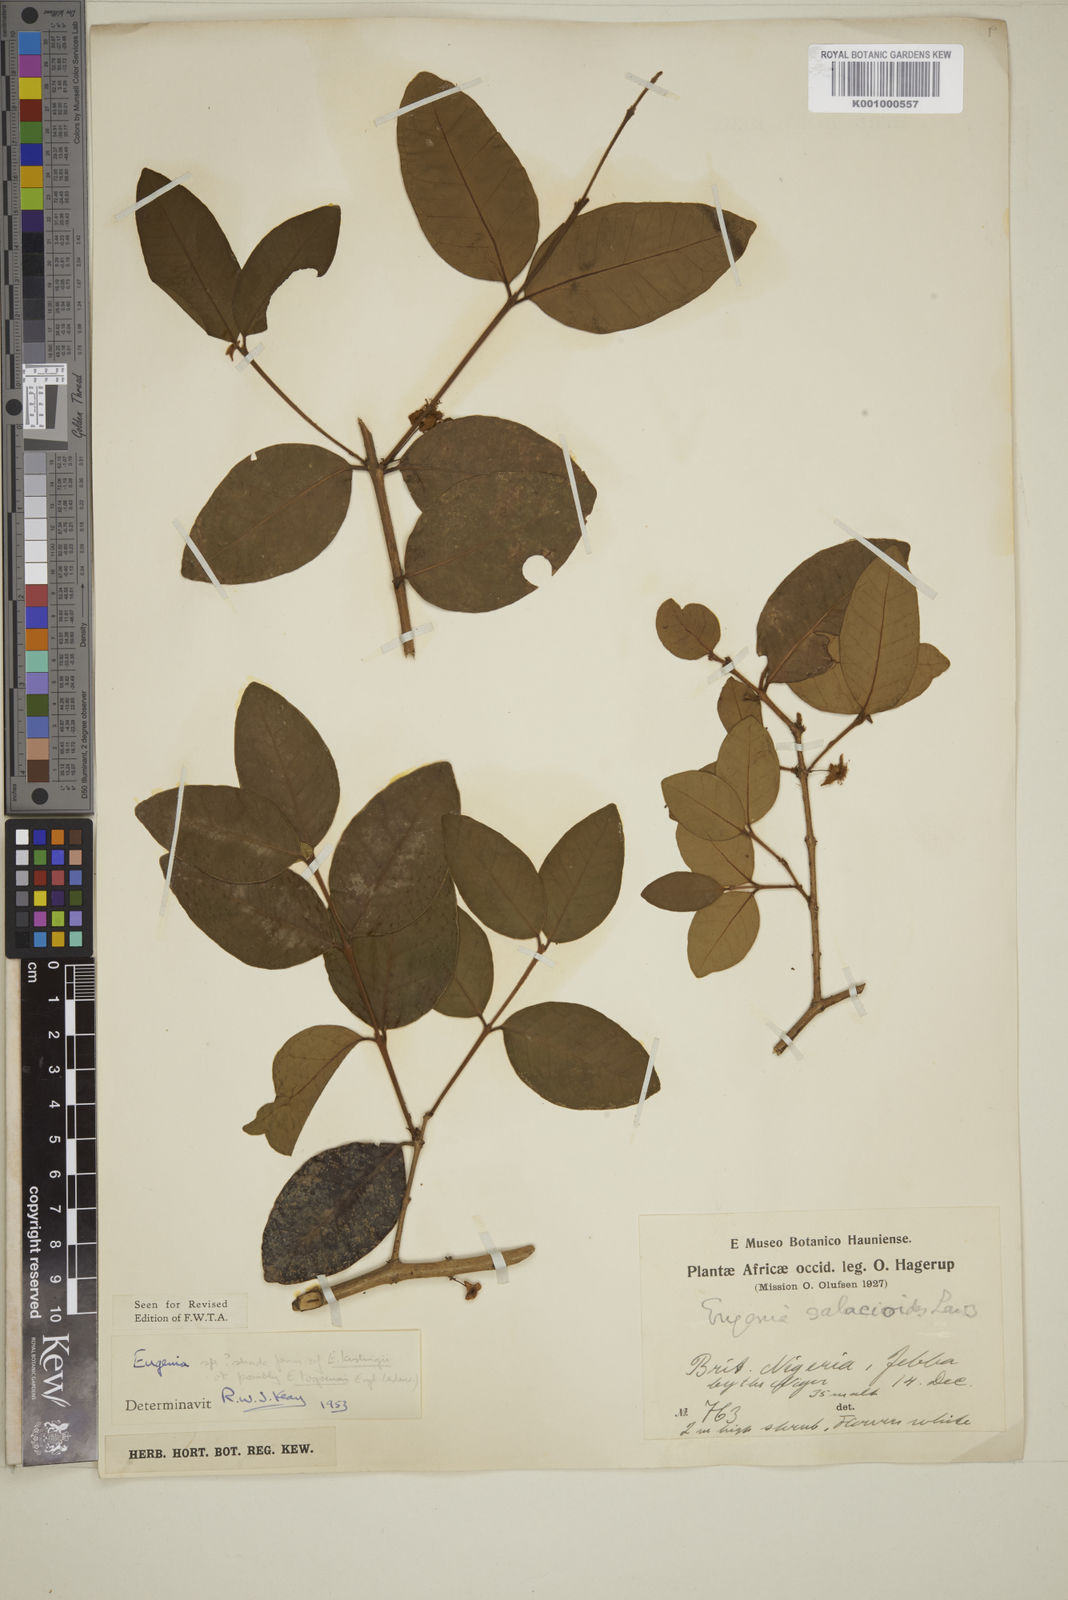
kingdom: Plantae
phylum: Tracheophyta
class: Magnoliopsida
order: Myrtales
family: Myrtaceae
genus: Eugenia
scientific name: Eugenia kerstingii
